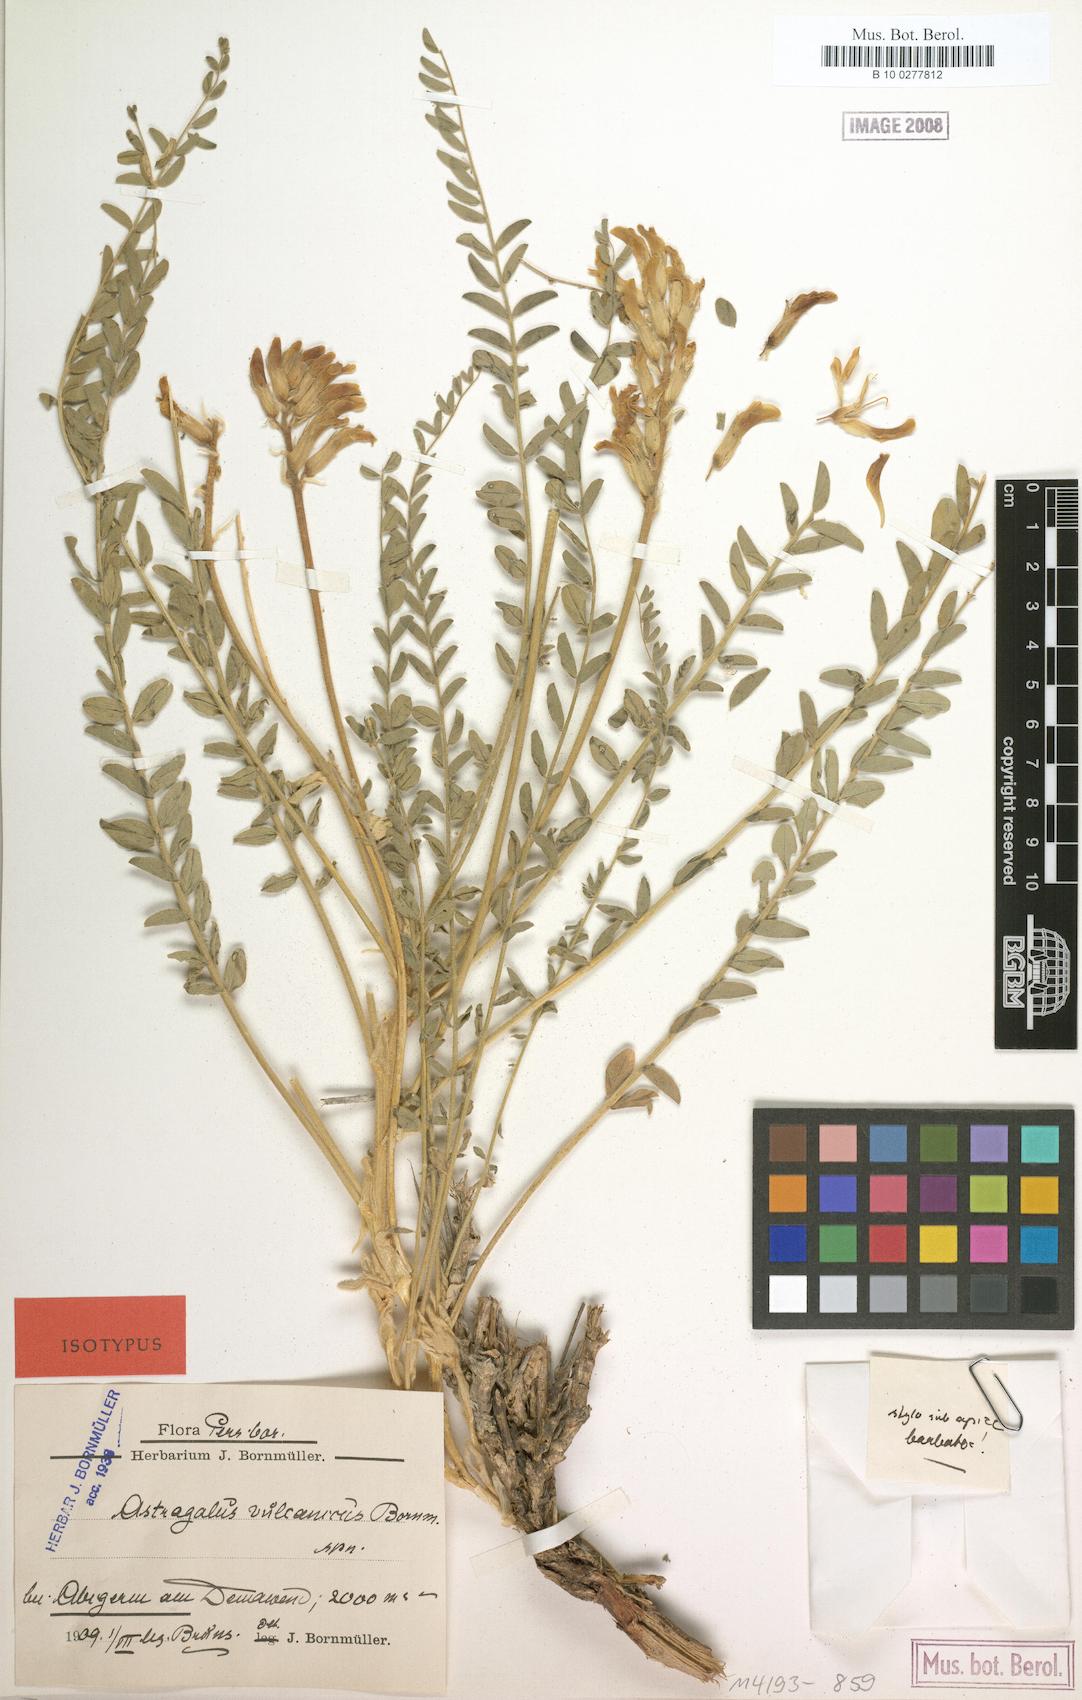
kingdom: Plantae
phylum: Tracheophyta
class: Magnoliopsida
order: Fabales
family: Fabaceae
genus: Astragalus
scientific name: Astragalus vulcanicus
